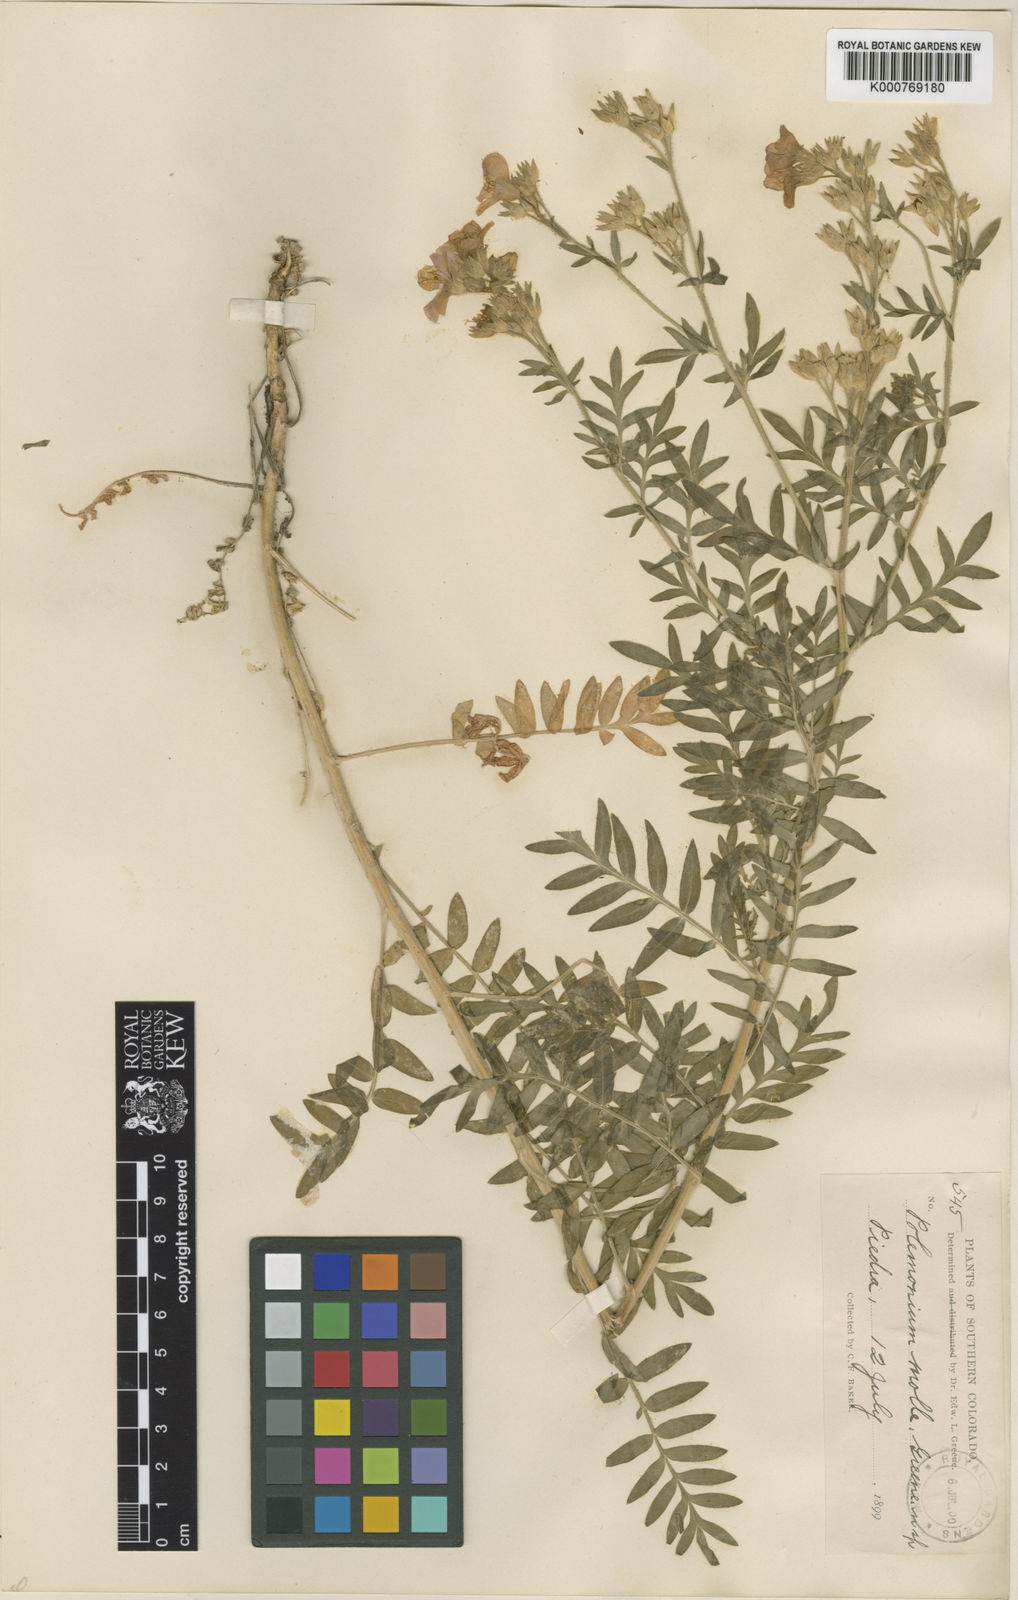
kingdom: Plantae
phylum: Tracheophyta
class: Magnoliopsida
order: Ericales
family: Polemoniaceae
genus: Polemonium
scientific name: Polemonium foliosissimum
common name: Leafy jacob's-ladder
